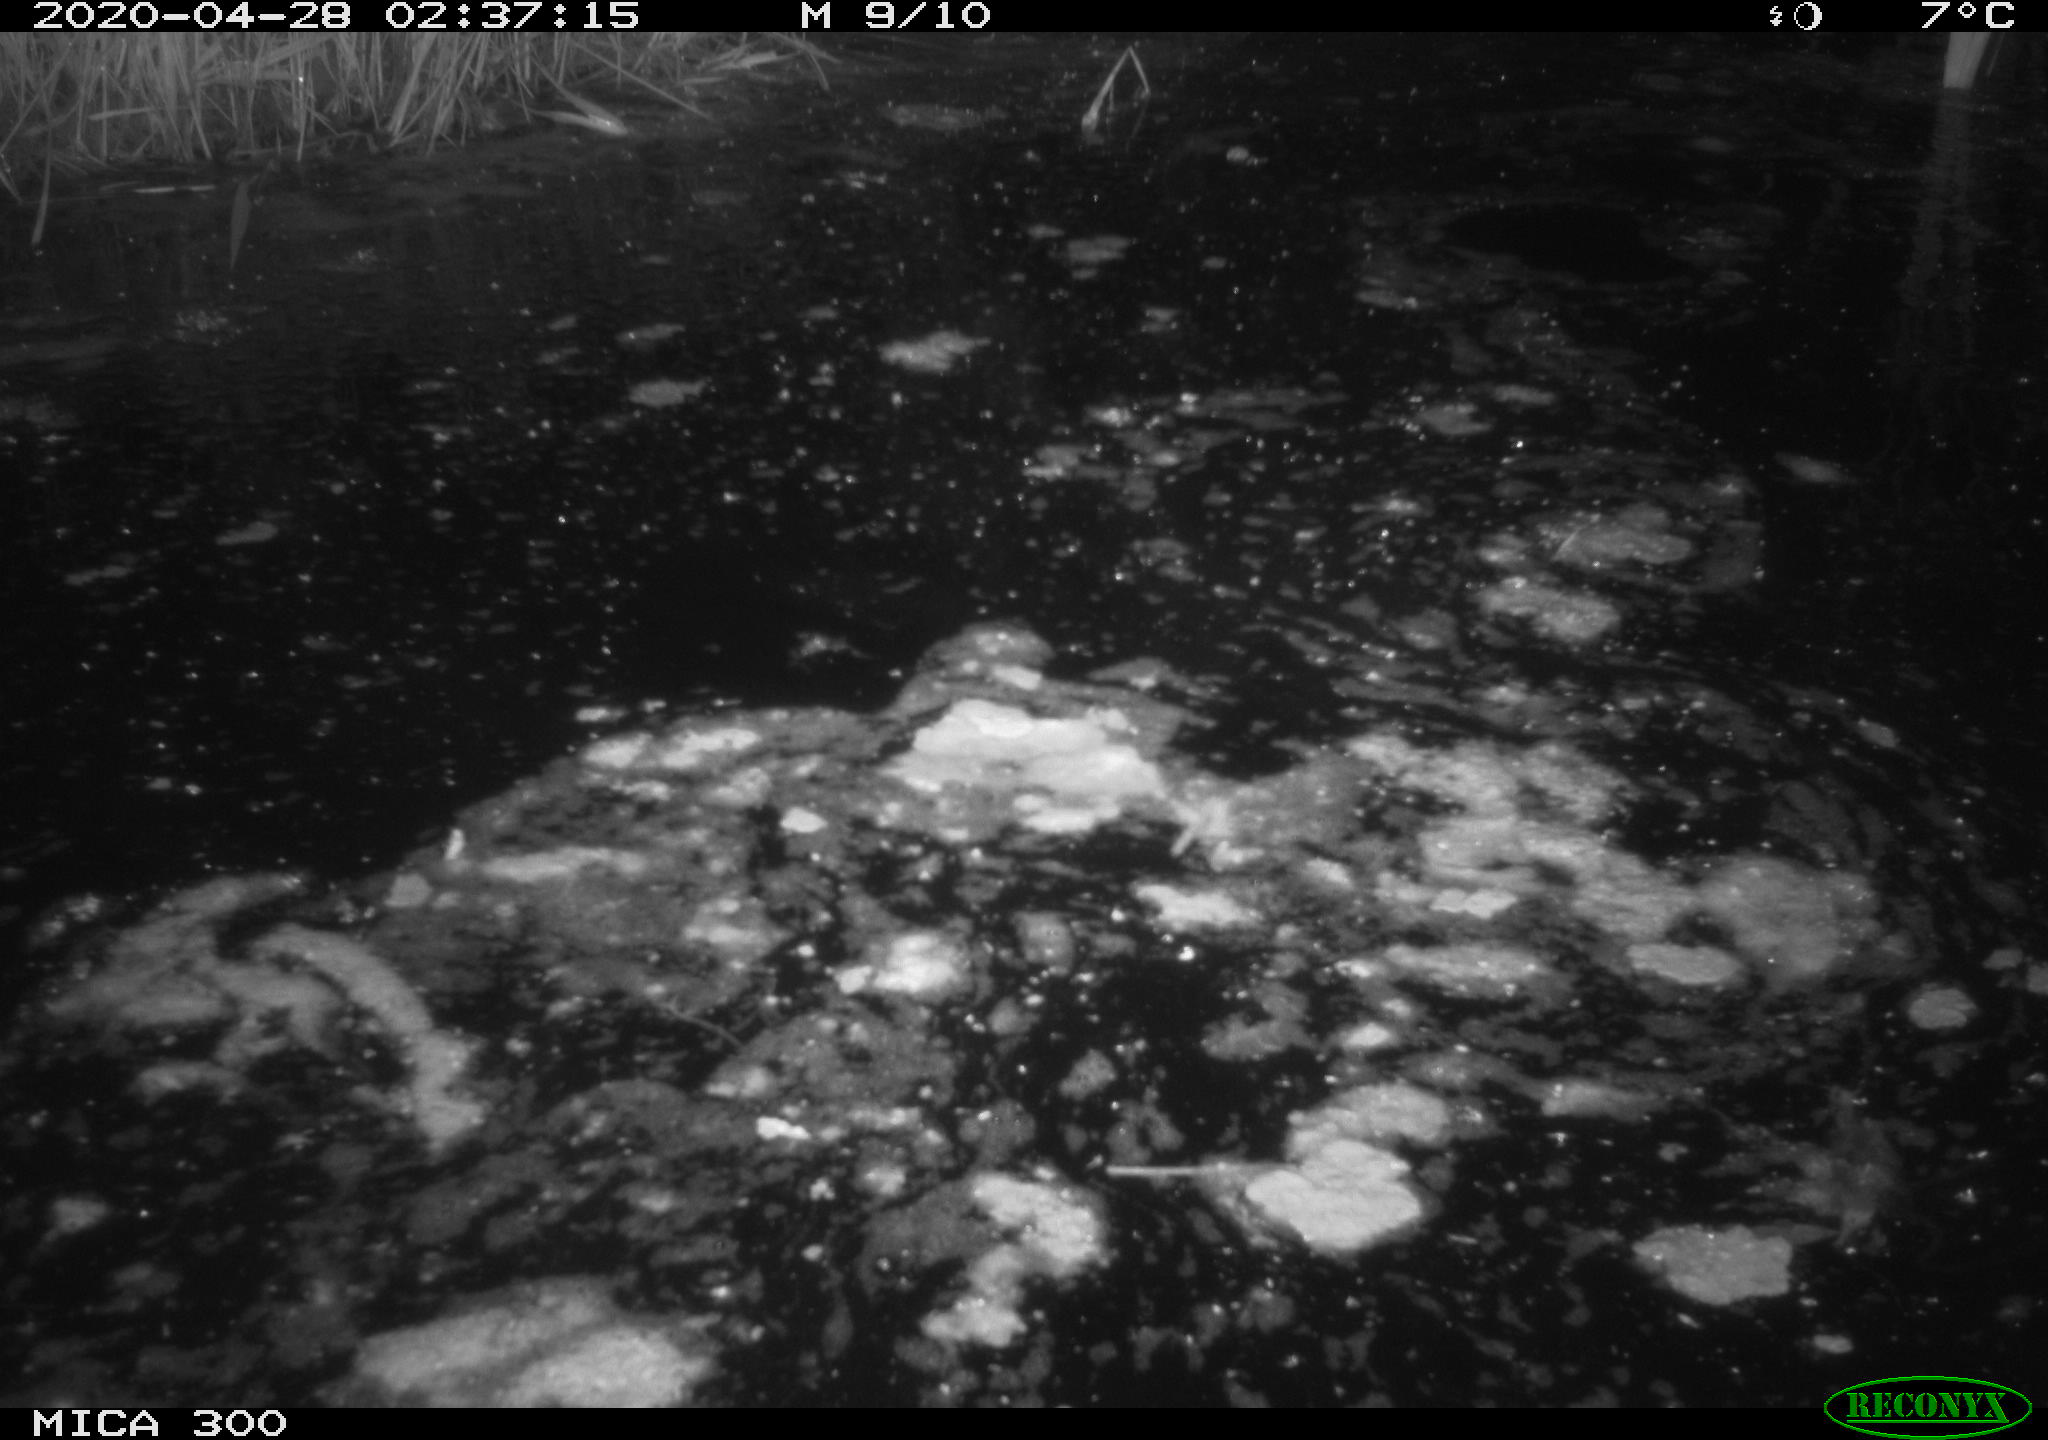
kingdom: Animalia
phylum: Chordata
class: Mammalia
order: Rodentia
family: Castoridae
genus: Castor
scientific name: Castor fiber
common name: Eurasian beaver
